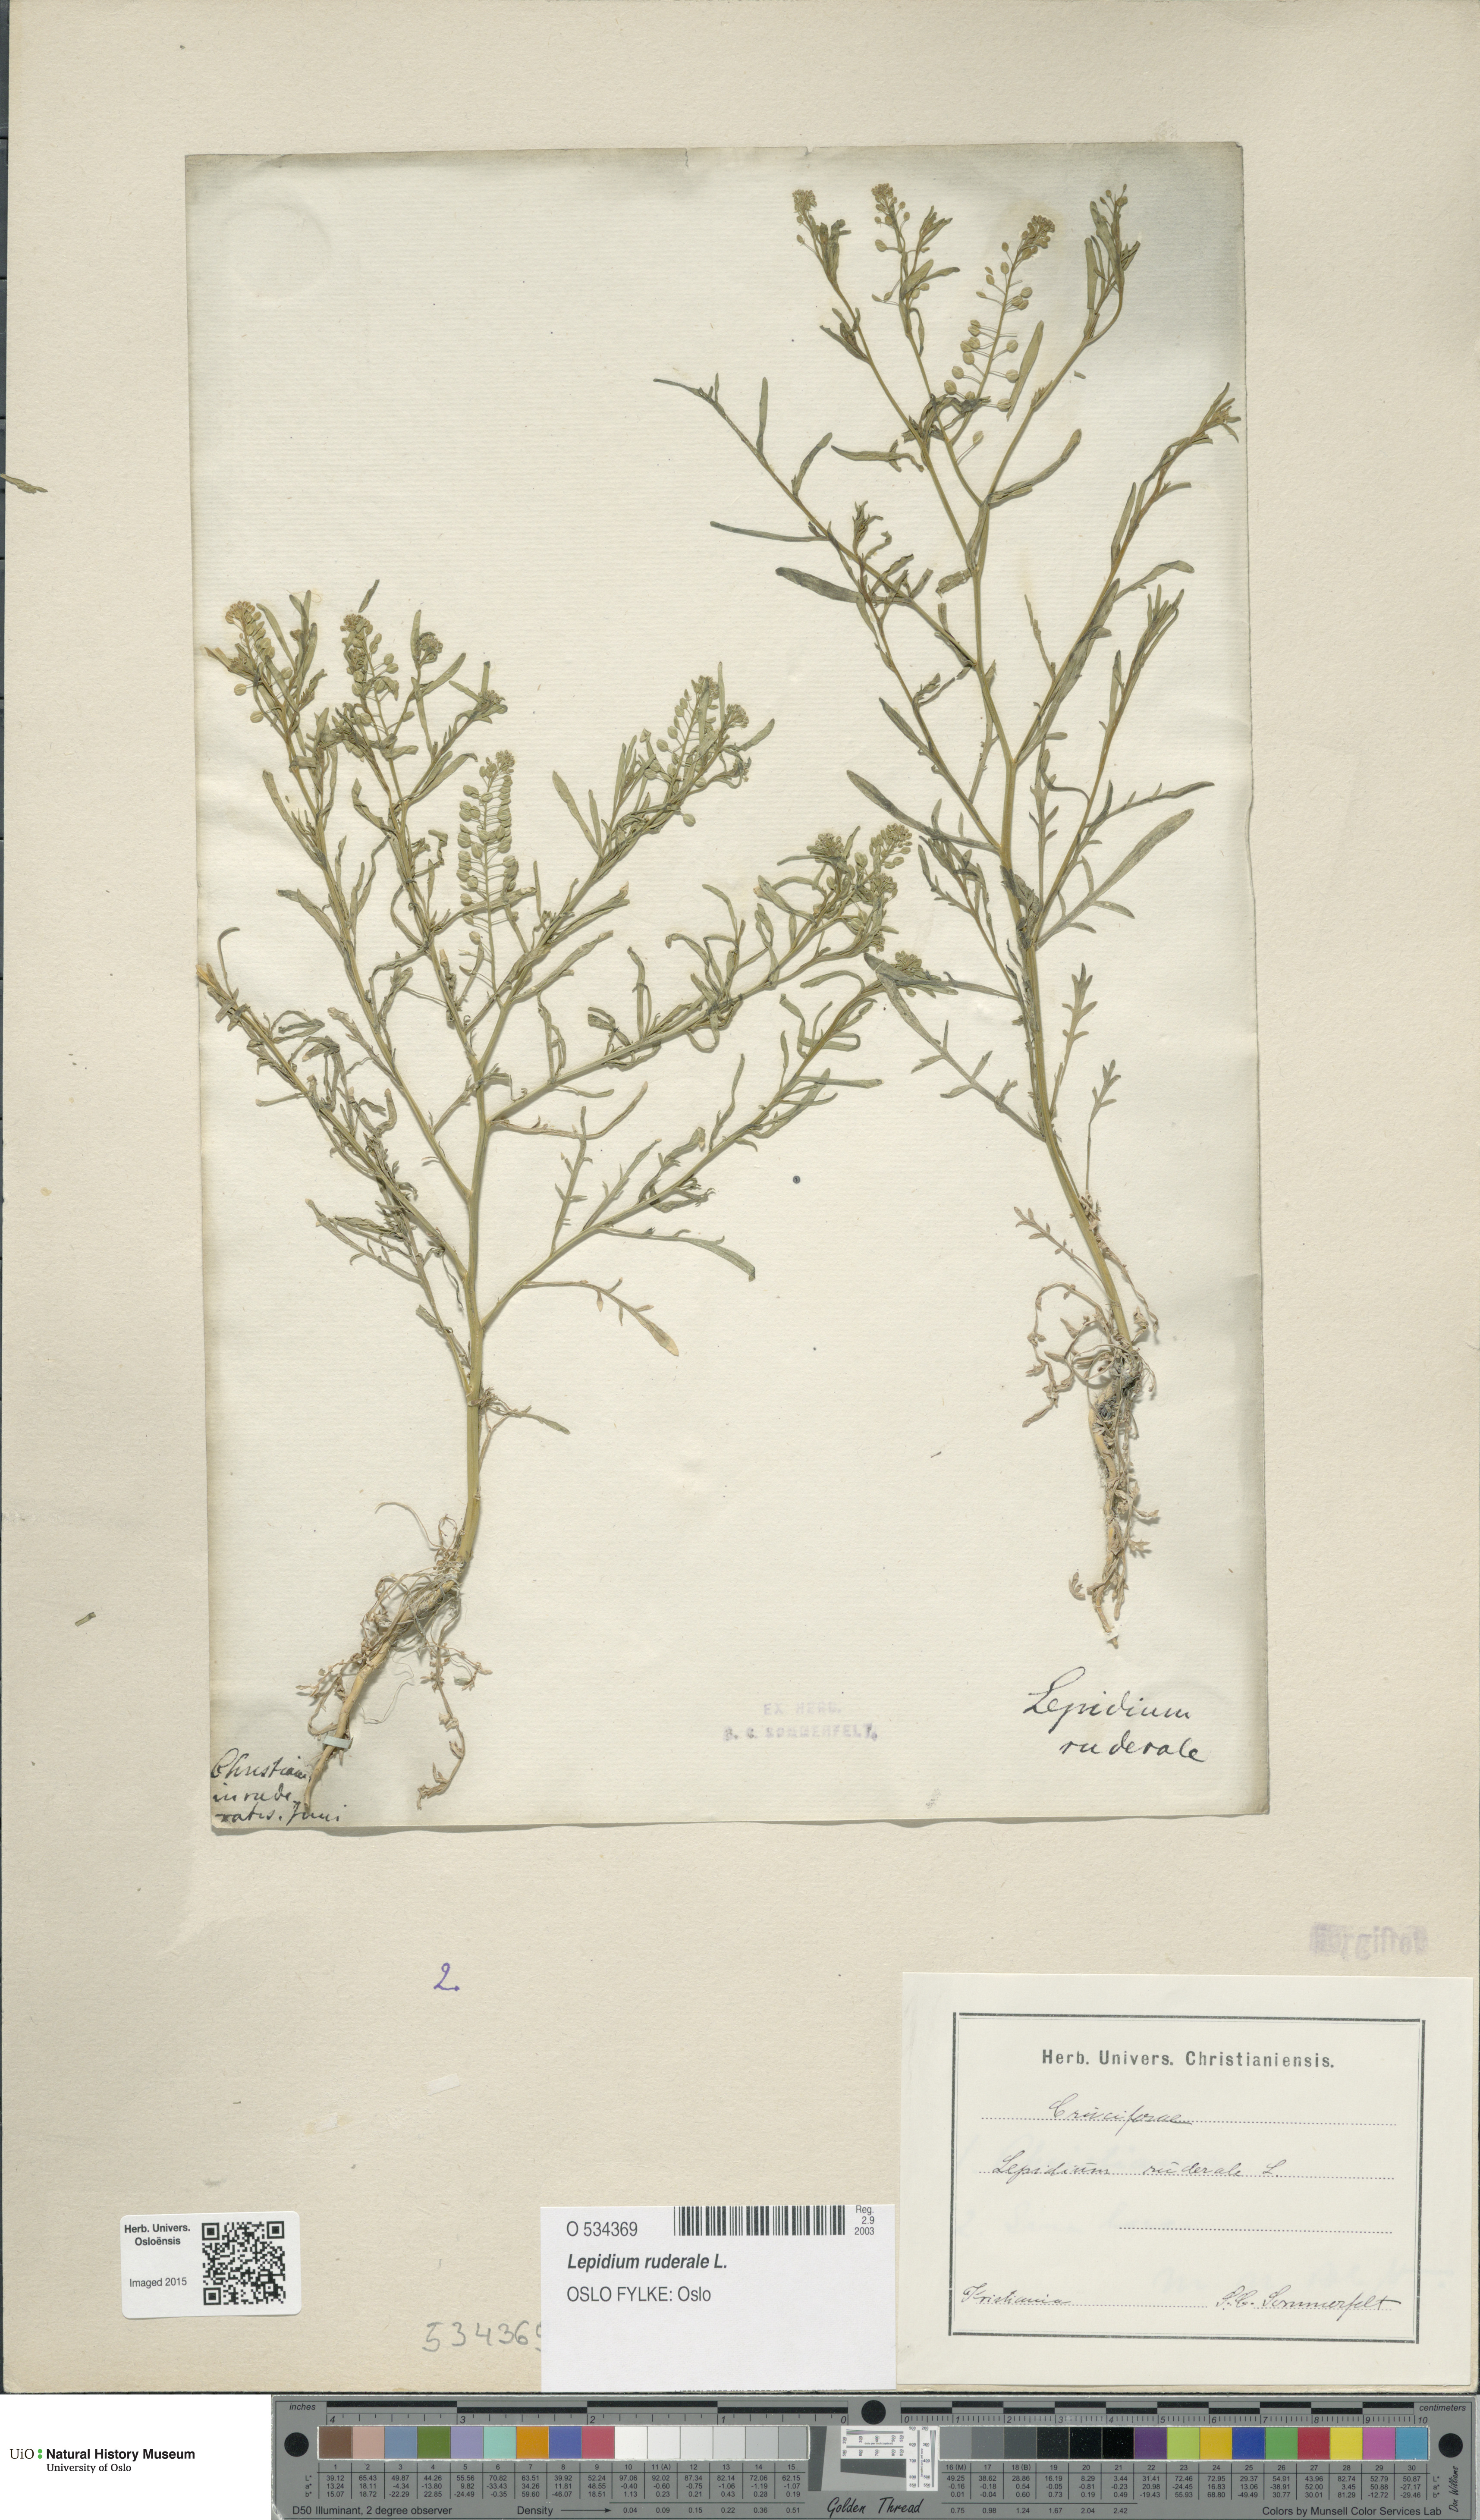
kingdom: Plantae
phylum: Tracheophyta
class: Magnoliopsida
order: Brassicales
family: Brassicaceae
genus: Lepidium
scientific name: Lepidium ruderale
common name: Narrow-leaved pepperwort
